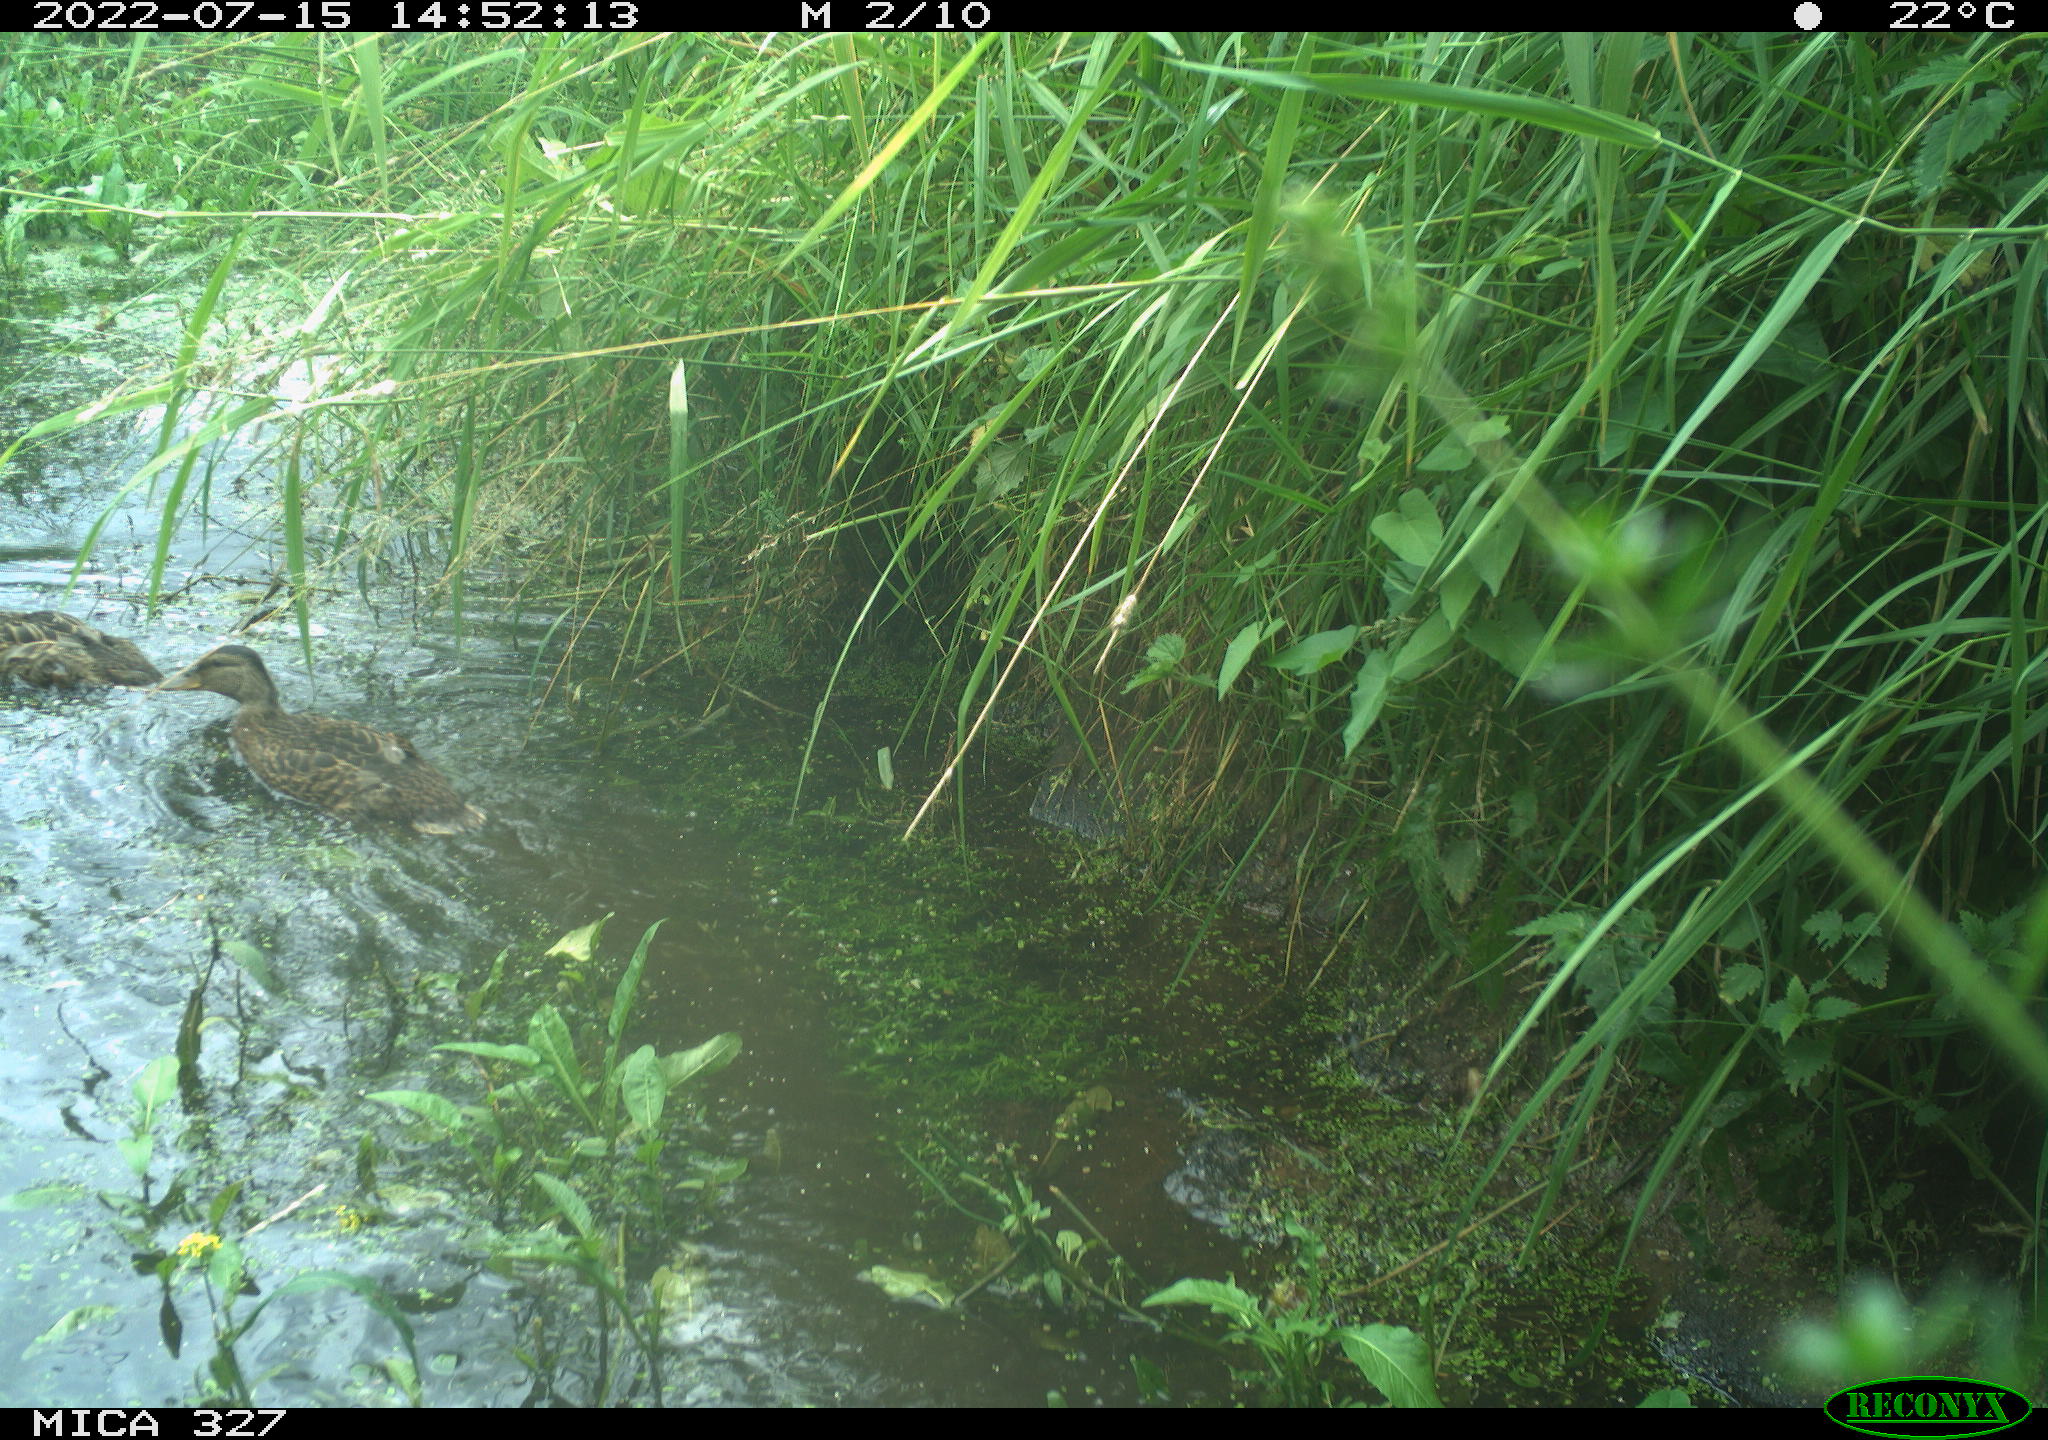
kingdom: Animalia
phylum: Chordata
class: Aves
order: Anseriformes
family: Anatidae
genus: Anas
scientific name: Anas
